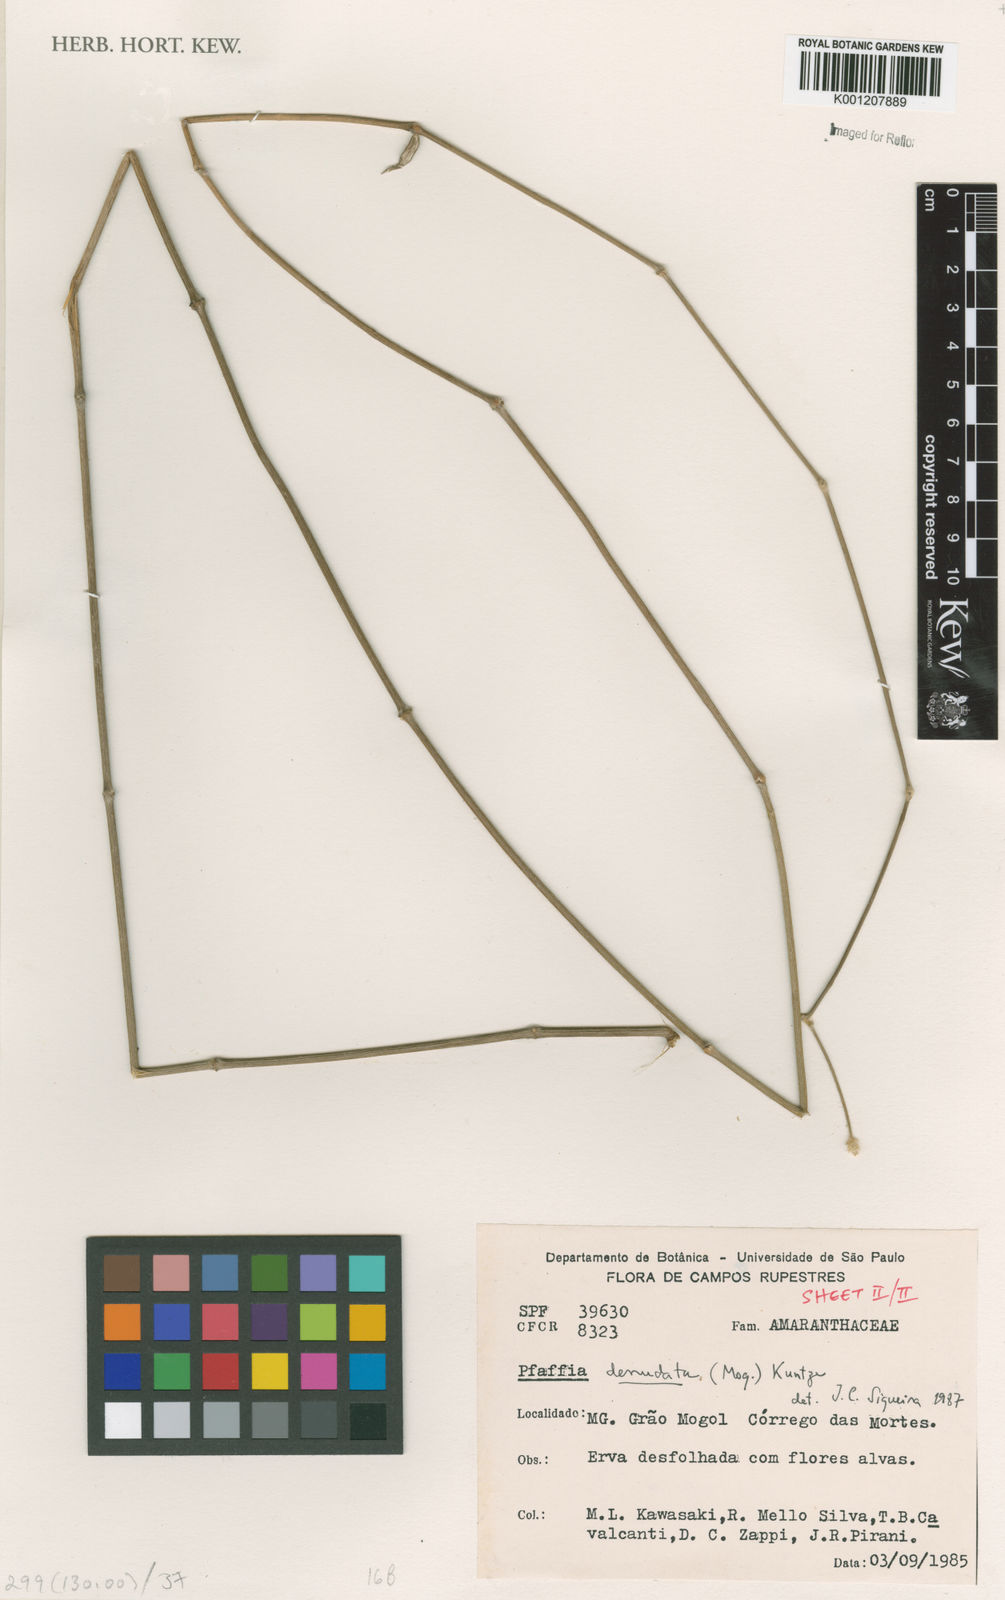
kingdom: Plantae
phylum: Tracheophyta
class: Magnoliopsida
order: Caryophyllales
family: Amaranthaceae
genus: Pfaffia
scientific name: Pfaffia denudata
